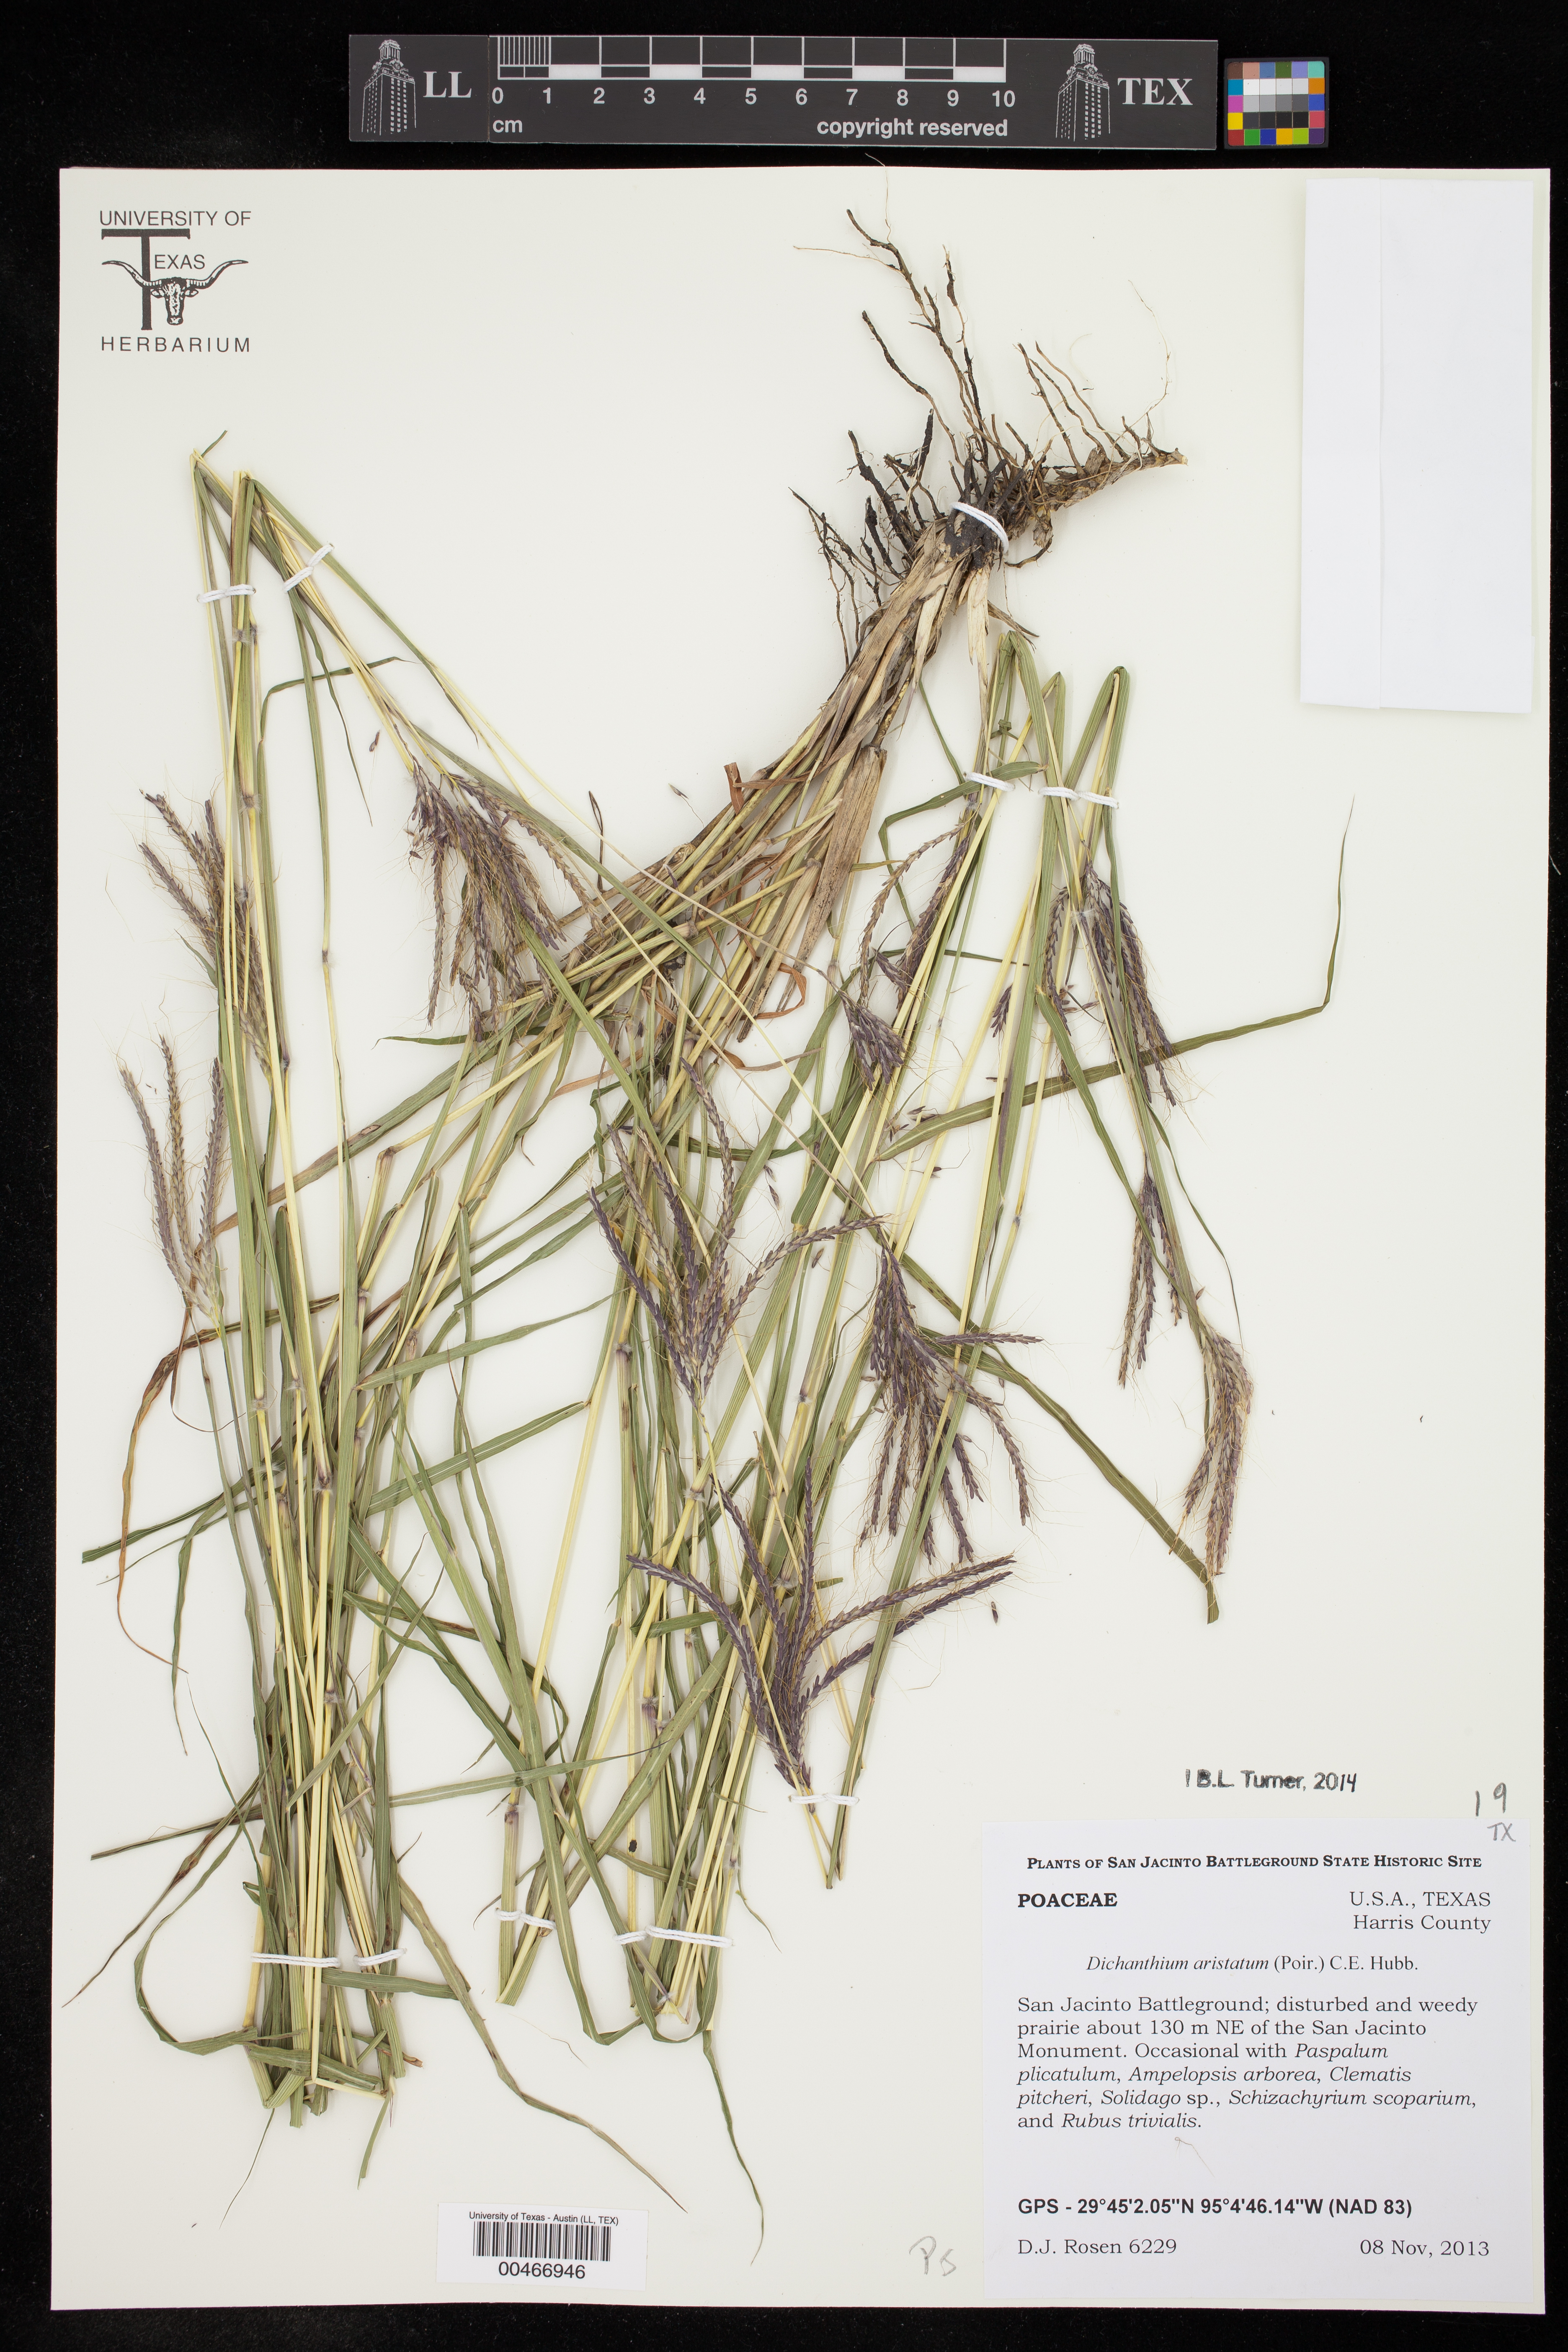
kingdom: Plantae
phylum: Tracheophyta
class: Liliopsida
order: Poales
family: Poaceae
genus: Dichanthium
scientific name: Dichanthium aristatum
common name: Angleton bluestem
